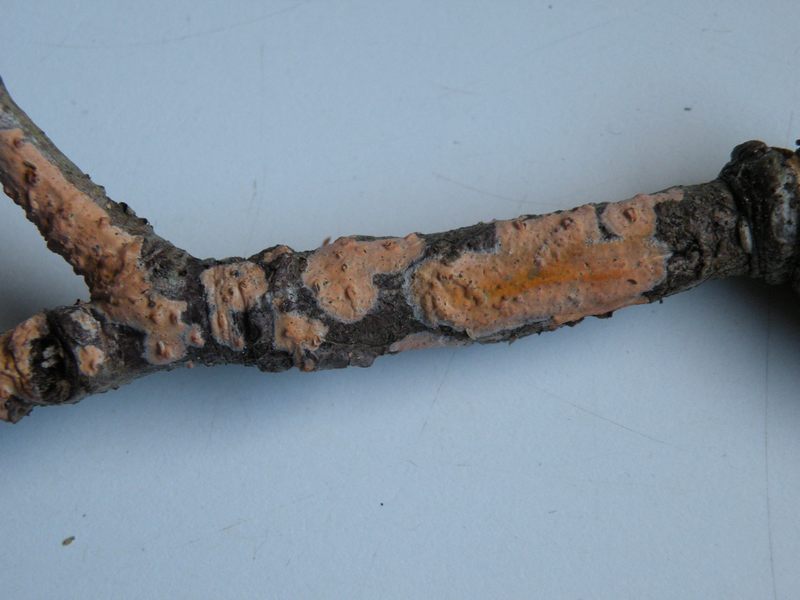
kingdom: Fungi
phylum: Basidiomycota
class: Agaricomycetes
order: Russulales
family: Peniophoraceae
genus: Peniophora
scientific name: Peniophora incarnata
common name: laksefarvet voksskind
